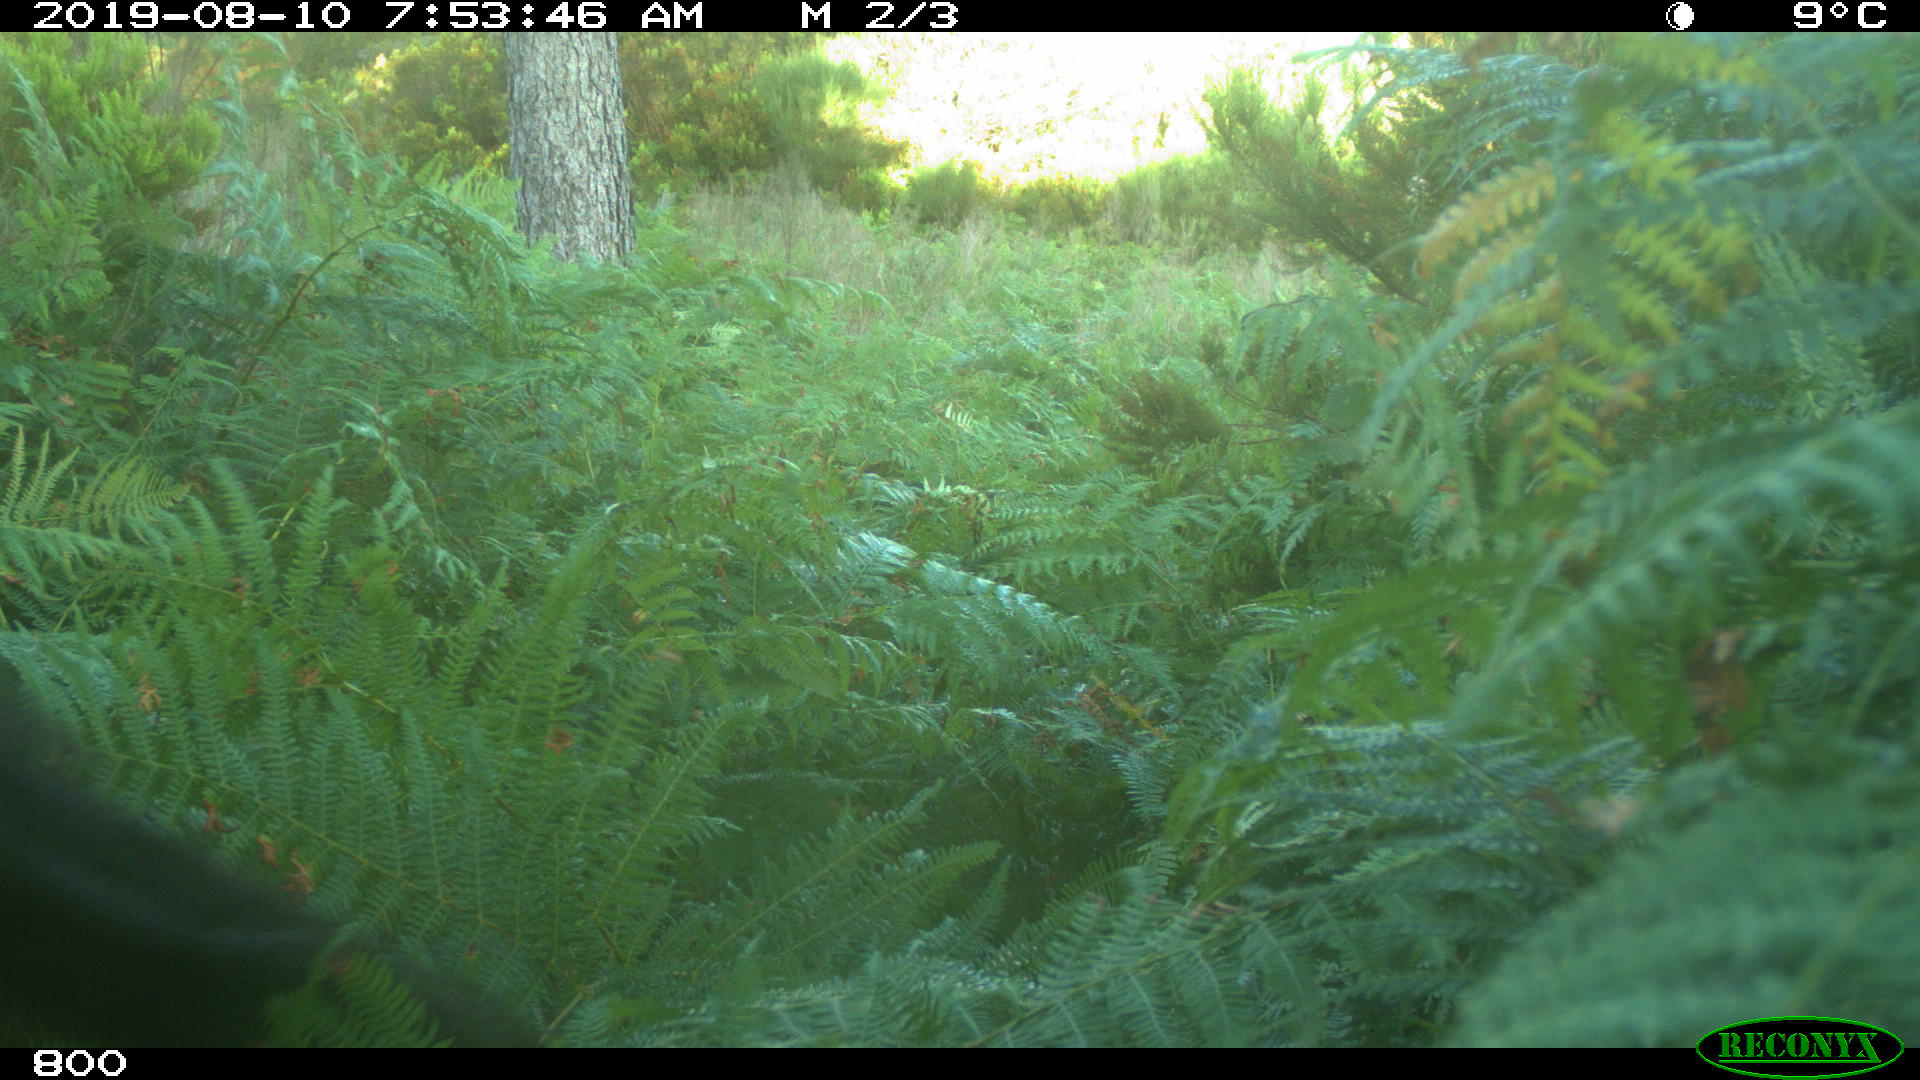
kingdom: Animalia
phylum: Chordata
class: Mammalia
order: Perissodactyla
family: Equidae
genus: Equus
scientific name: Equus caballus
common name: Horse
